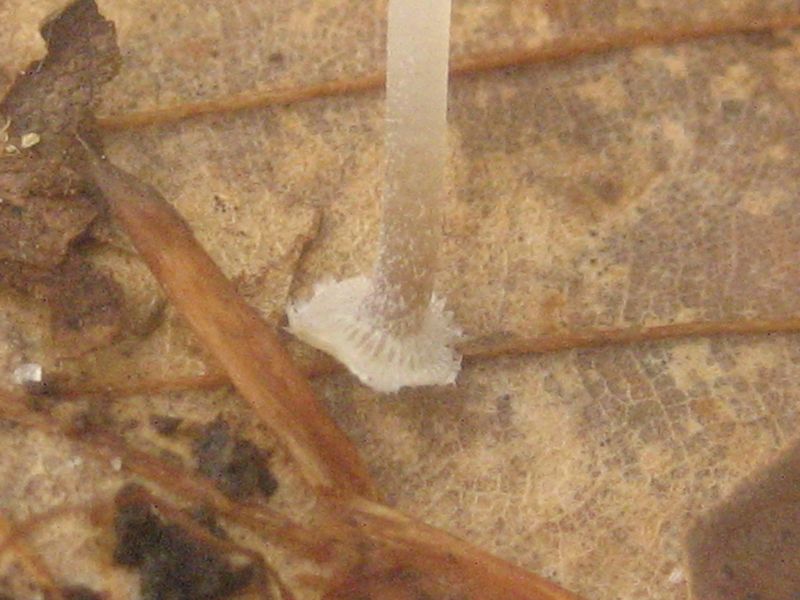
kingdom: Fungi
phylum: Basidiomycota
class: Agaricomycetes
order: Agaricales
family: Mycenaceae
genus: Mycena
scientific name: Mycena stylobates
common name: fureskivet huesvamp
